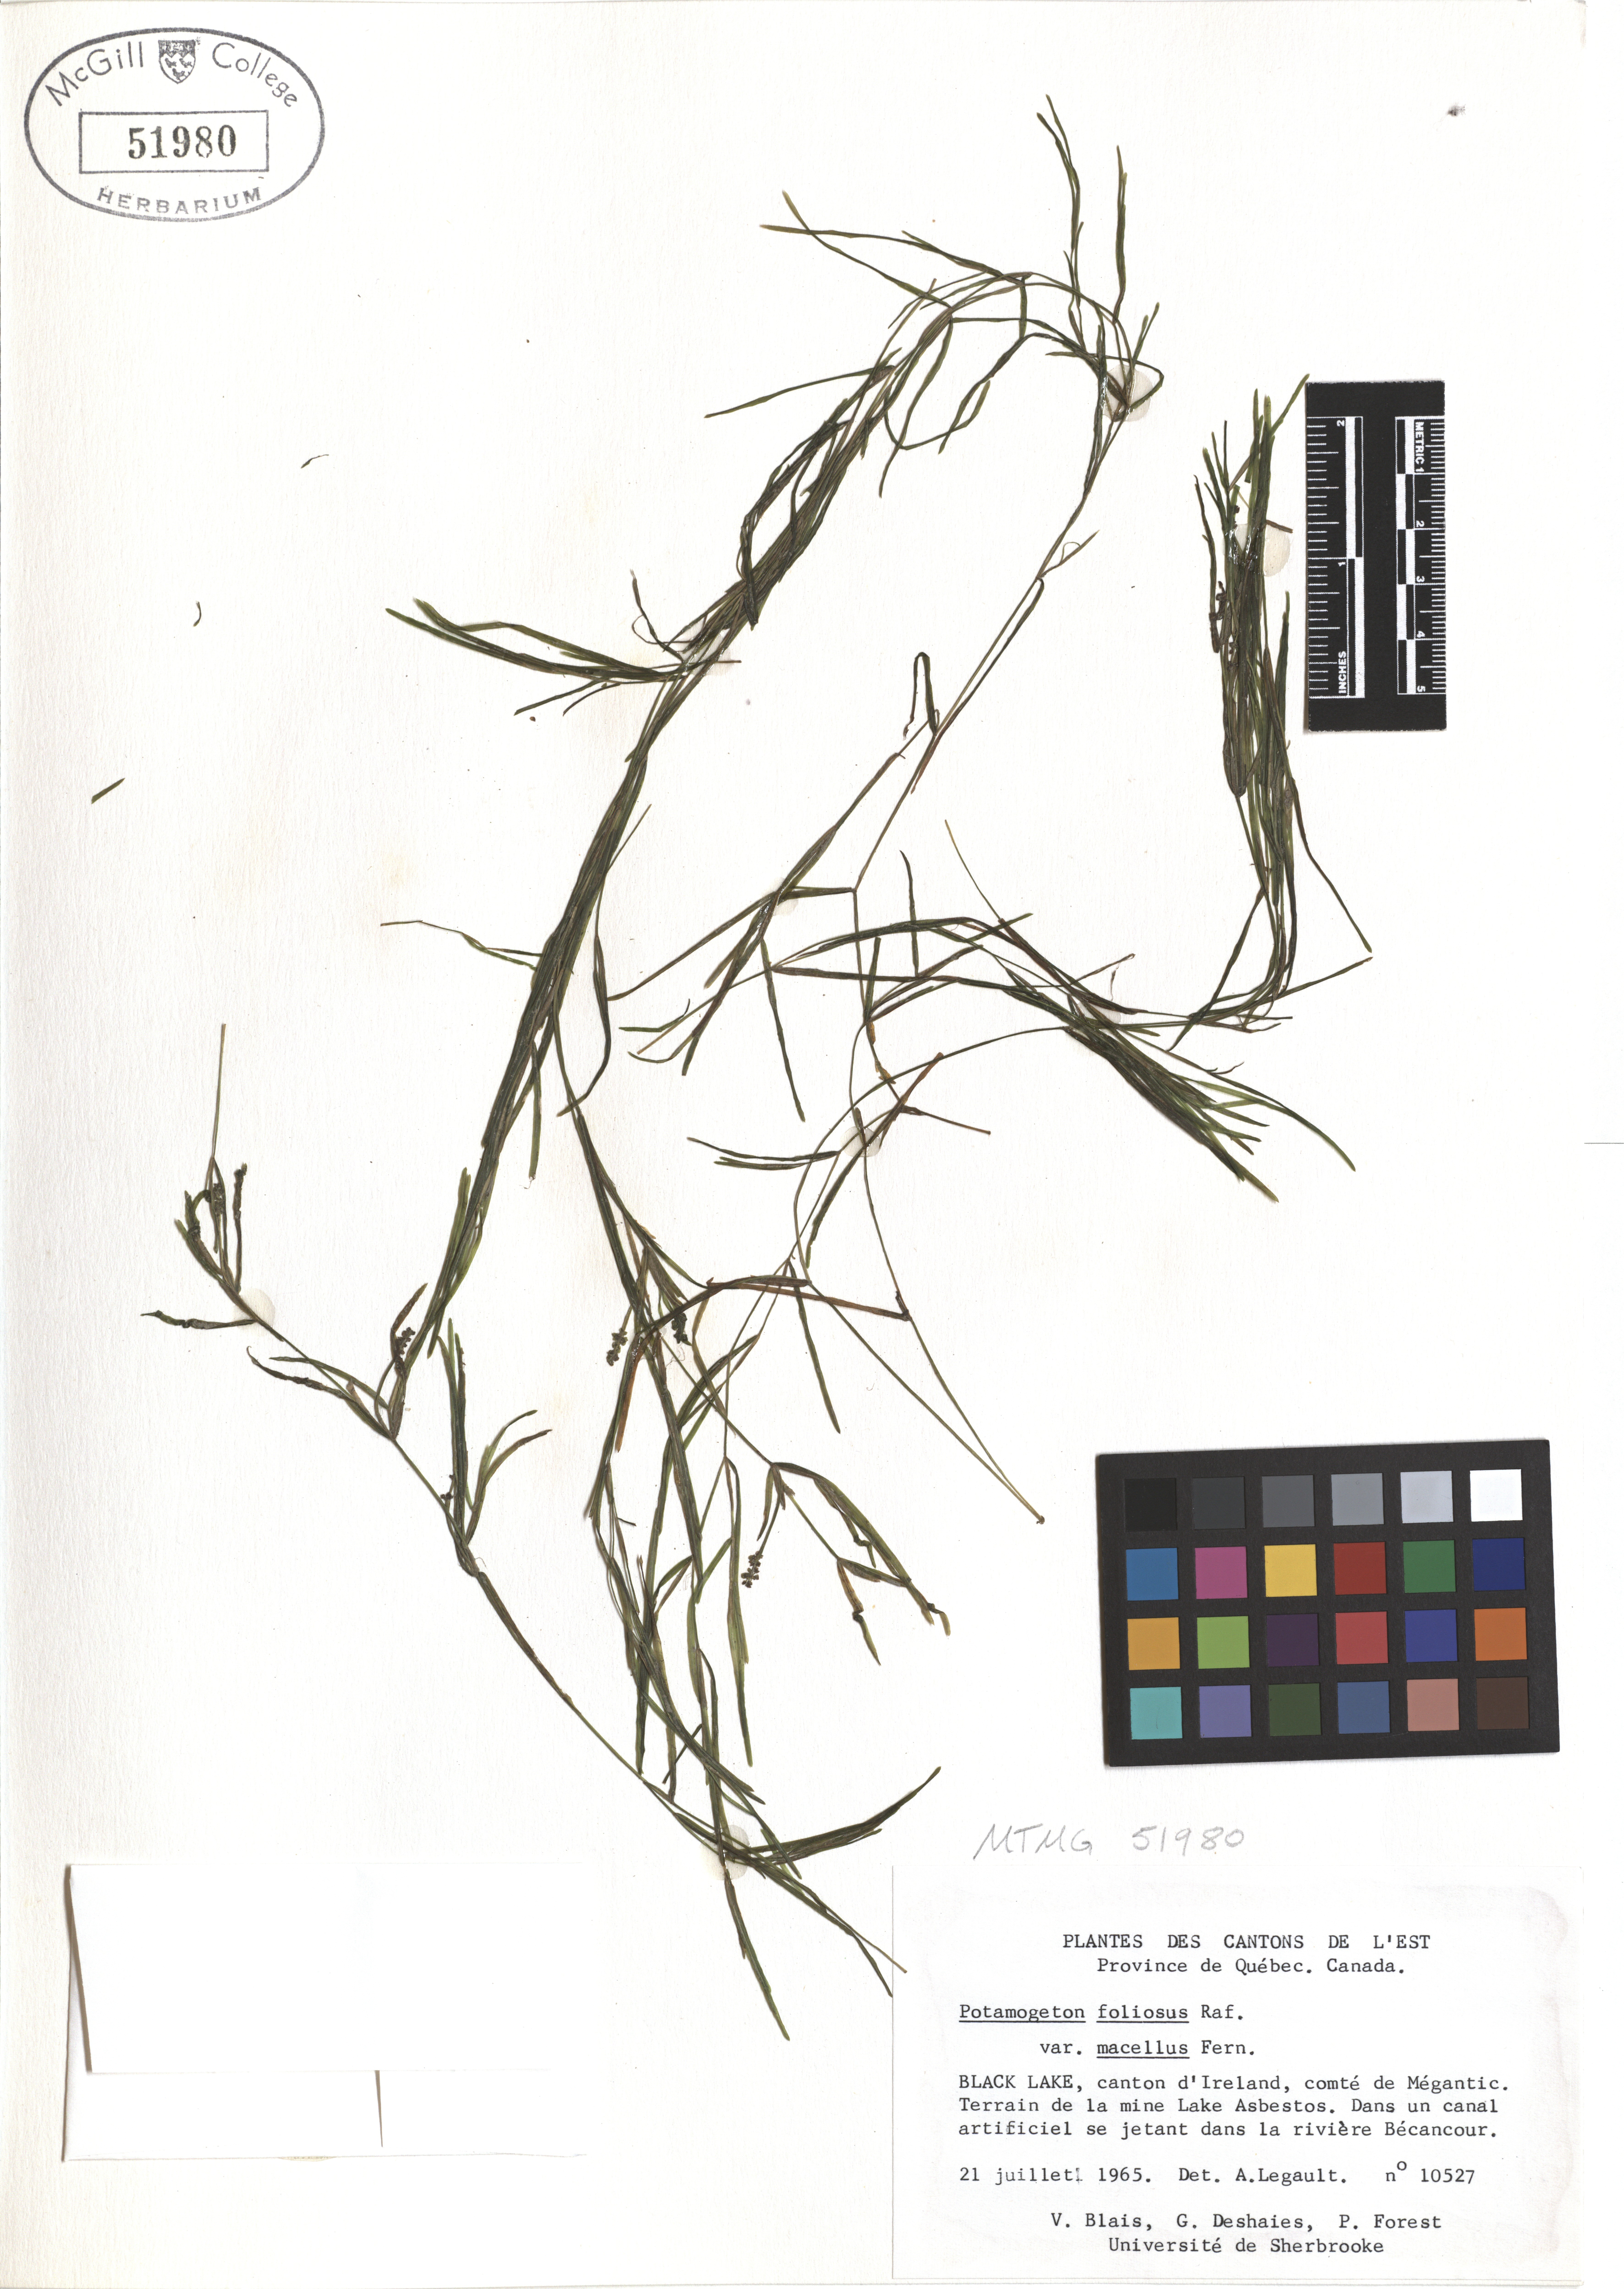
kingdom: Plantae
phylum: Tracheophyta
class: Liliopsida
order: Alismatales
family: Potamogetonaceae
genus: Potamogeton
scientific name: Potamogeton foliosus
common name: Leafy pondweed
